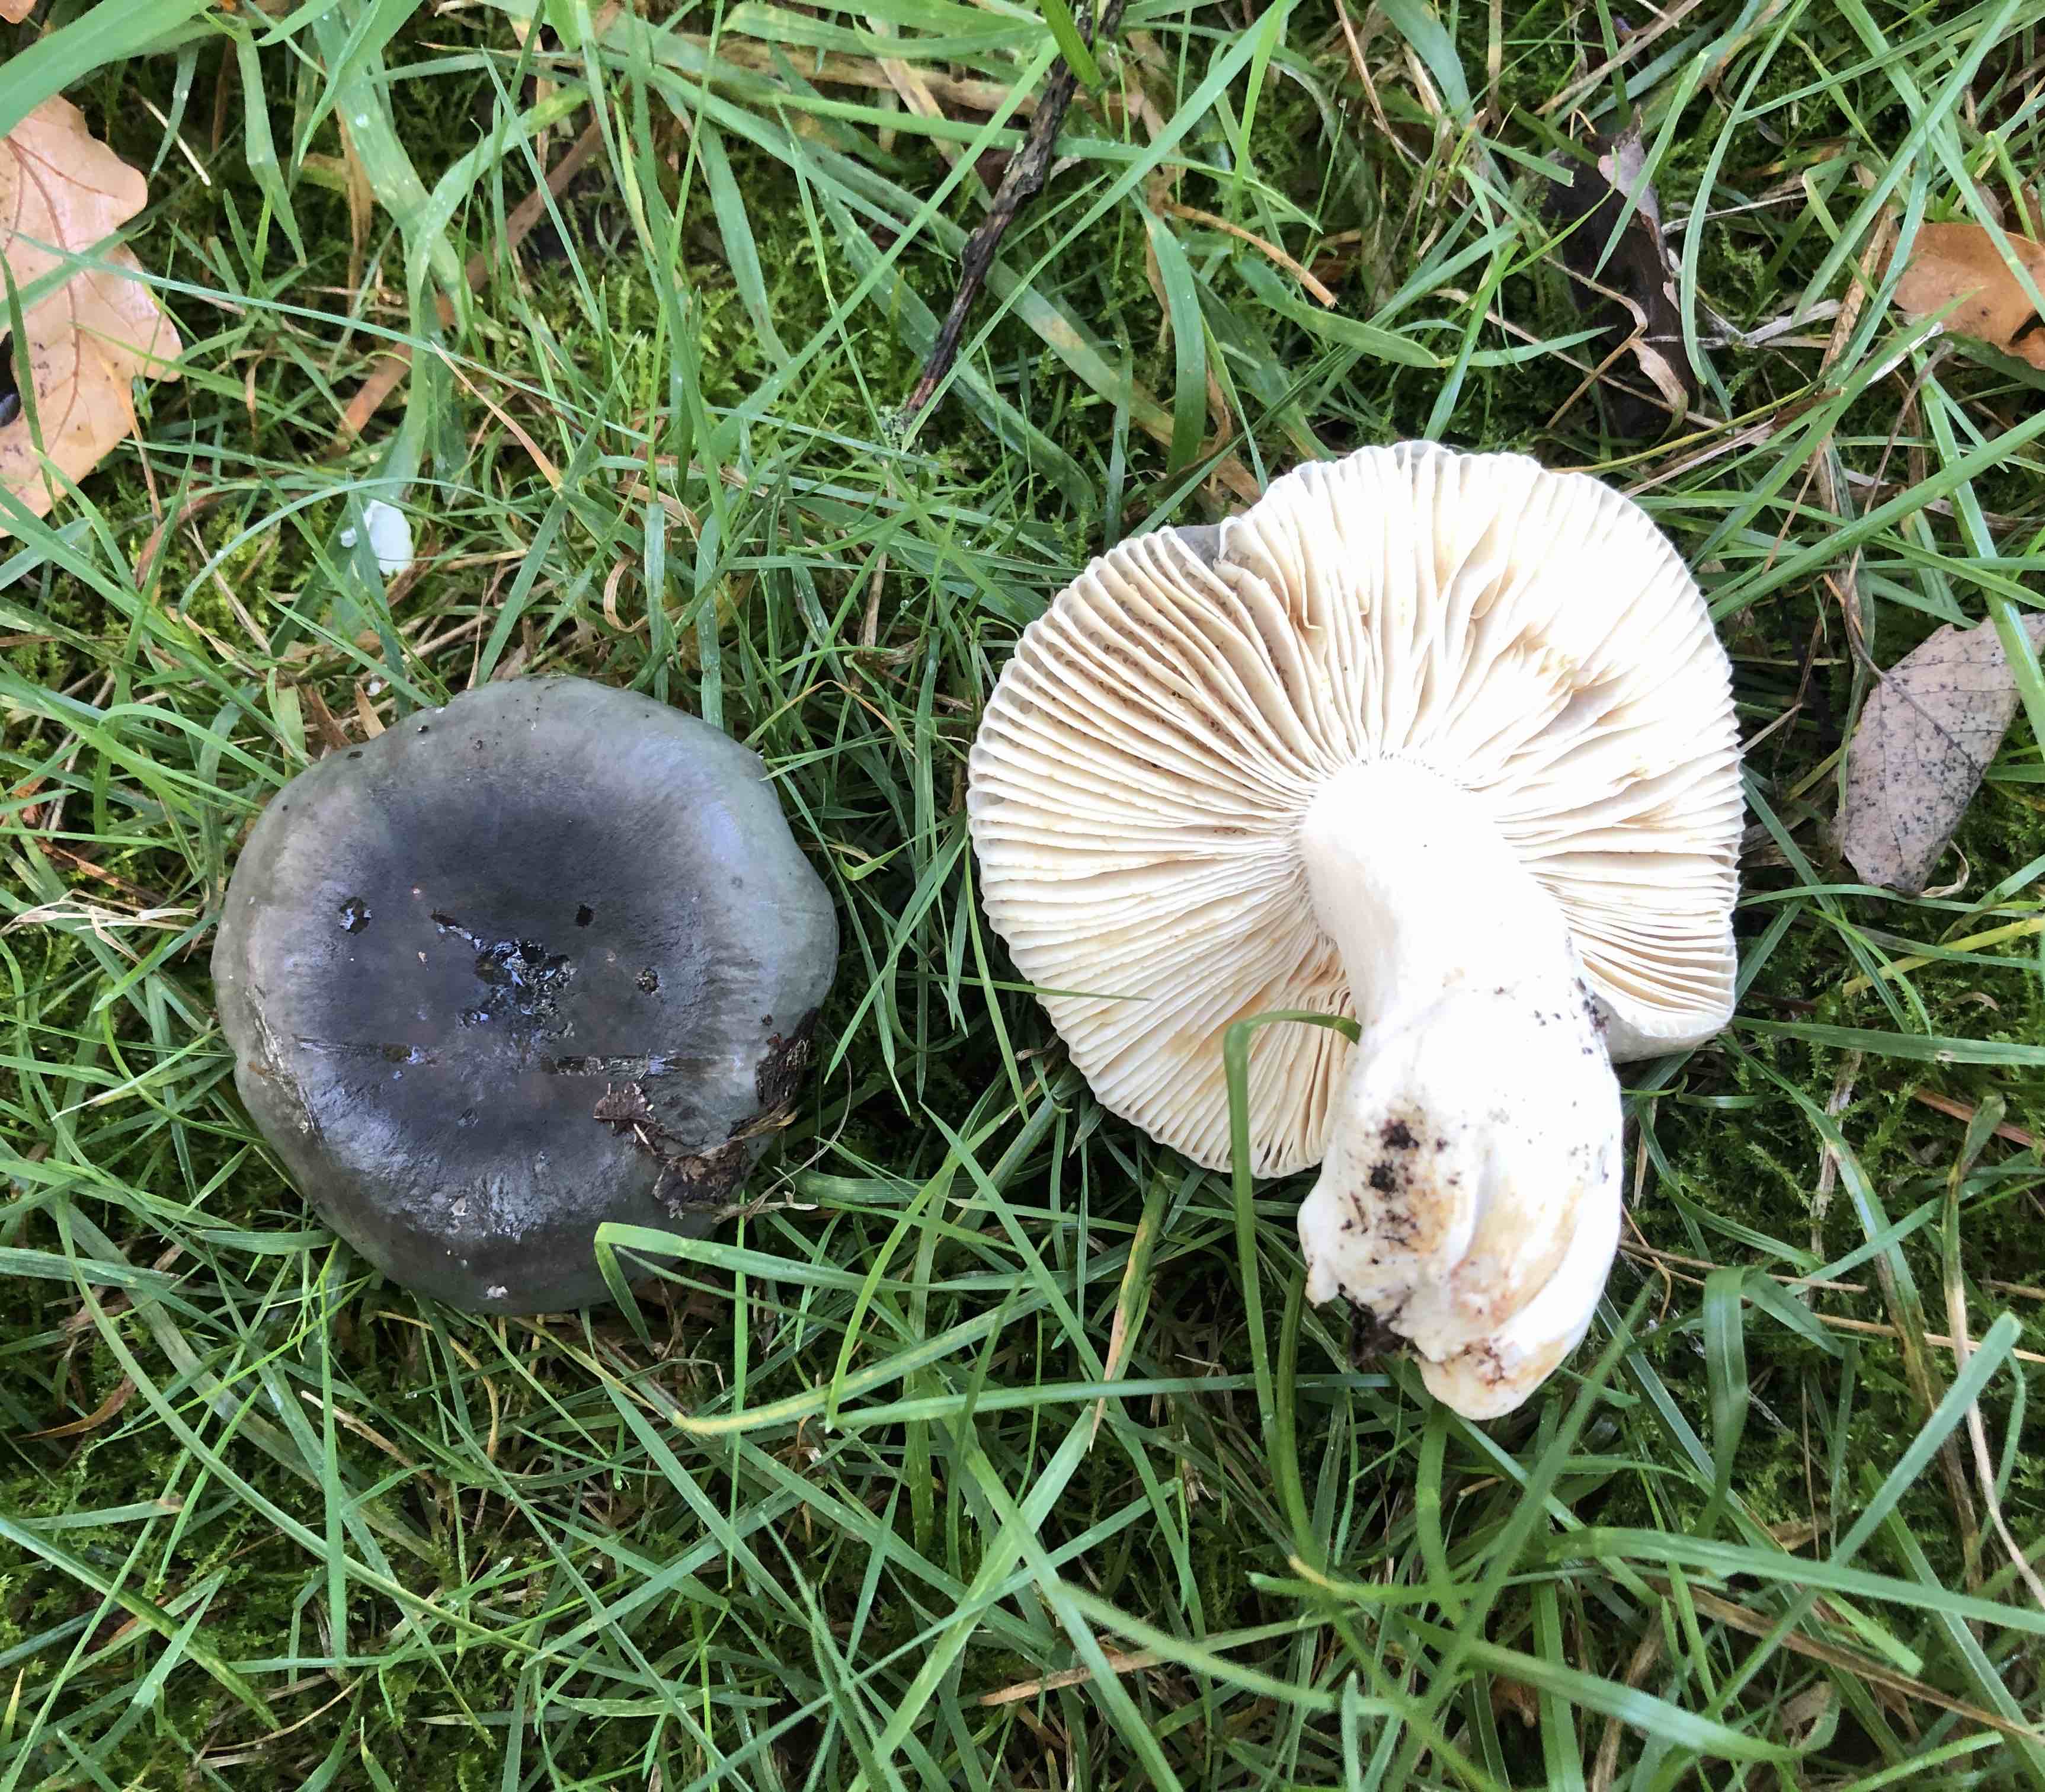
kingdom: Fungi
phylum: Basidiomycota
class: Agaricomycetes
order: Russulales
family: Russulaceae
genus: Russula
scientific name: Russula parazurea
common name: blågrå skørhat
